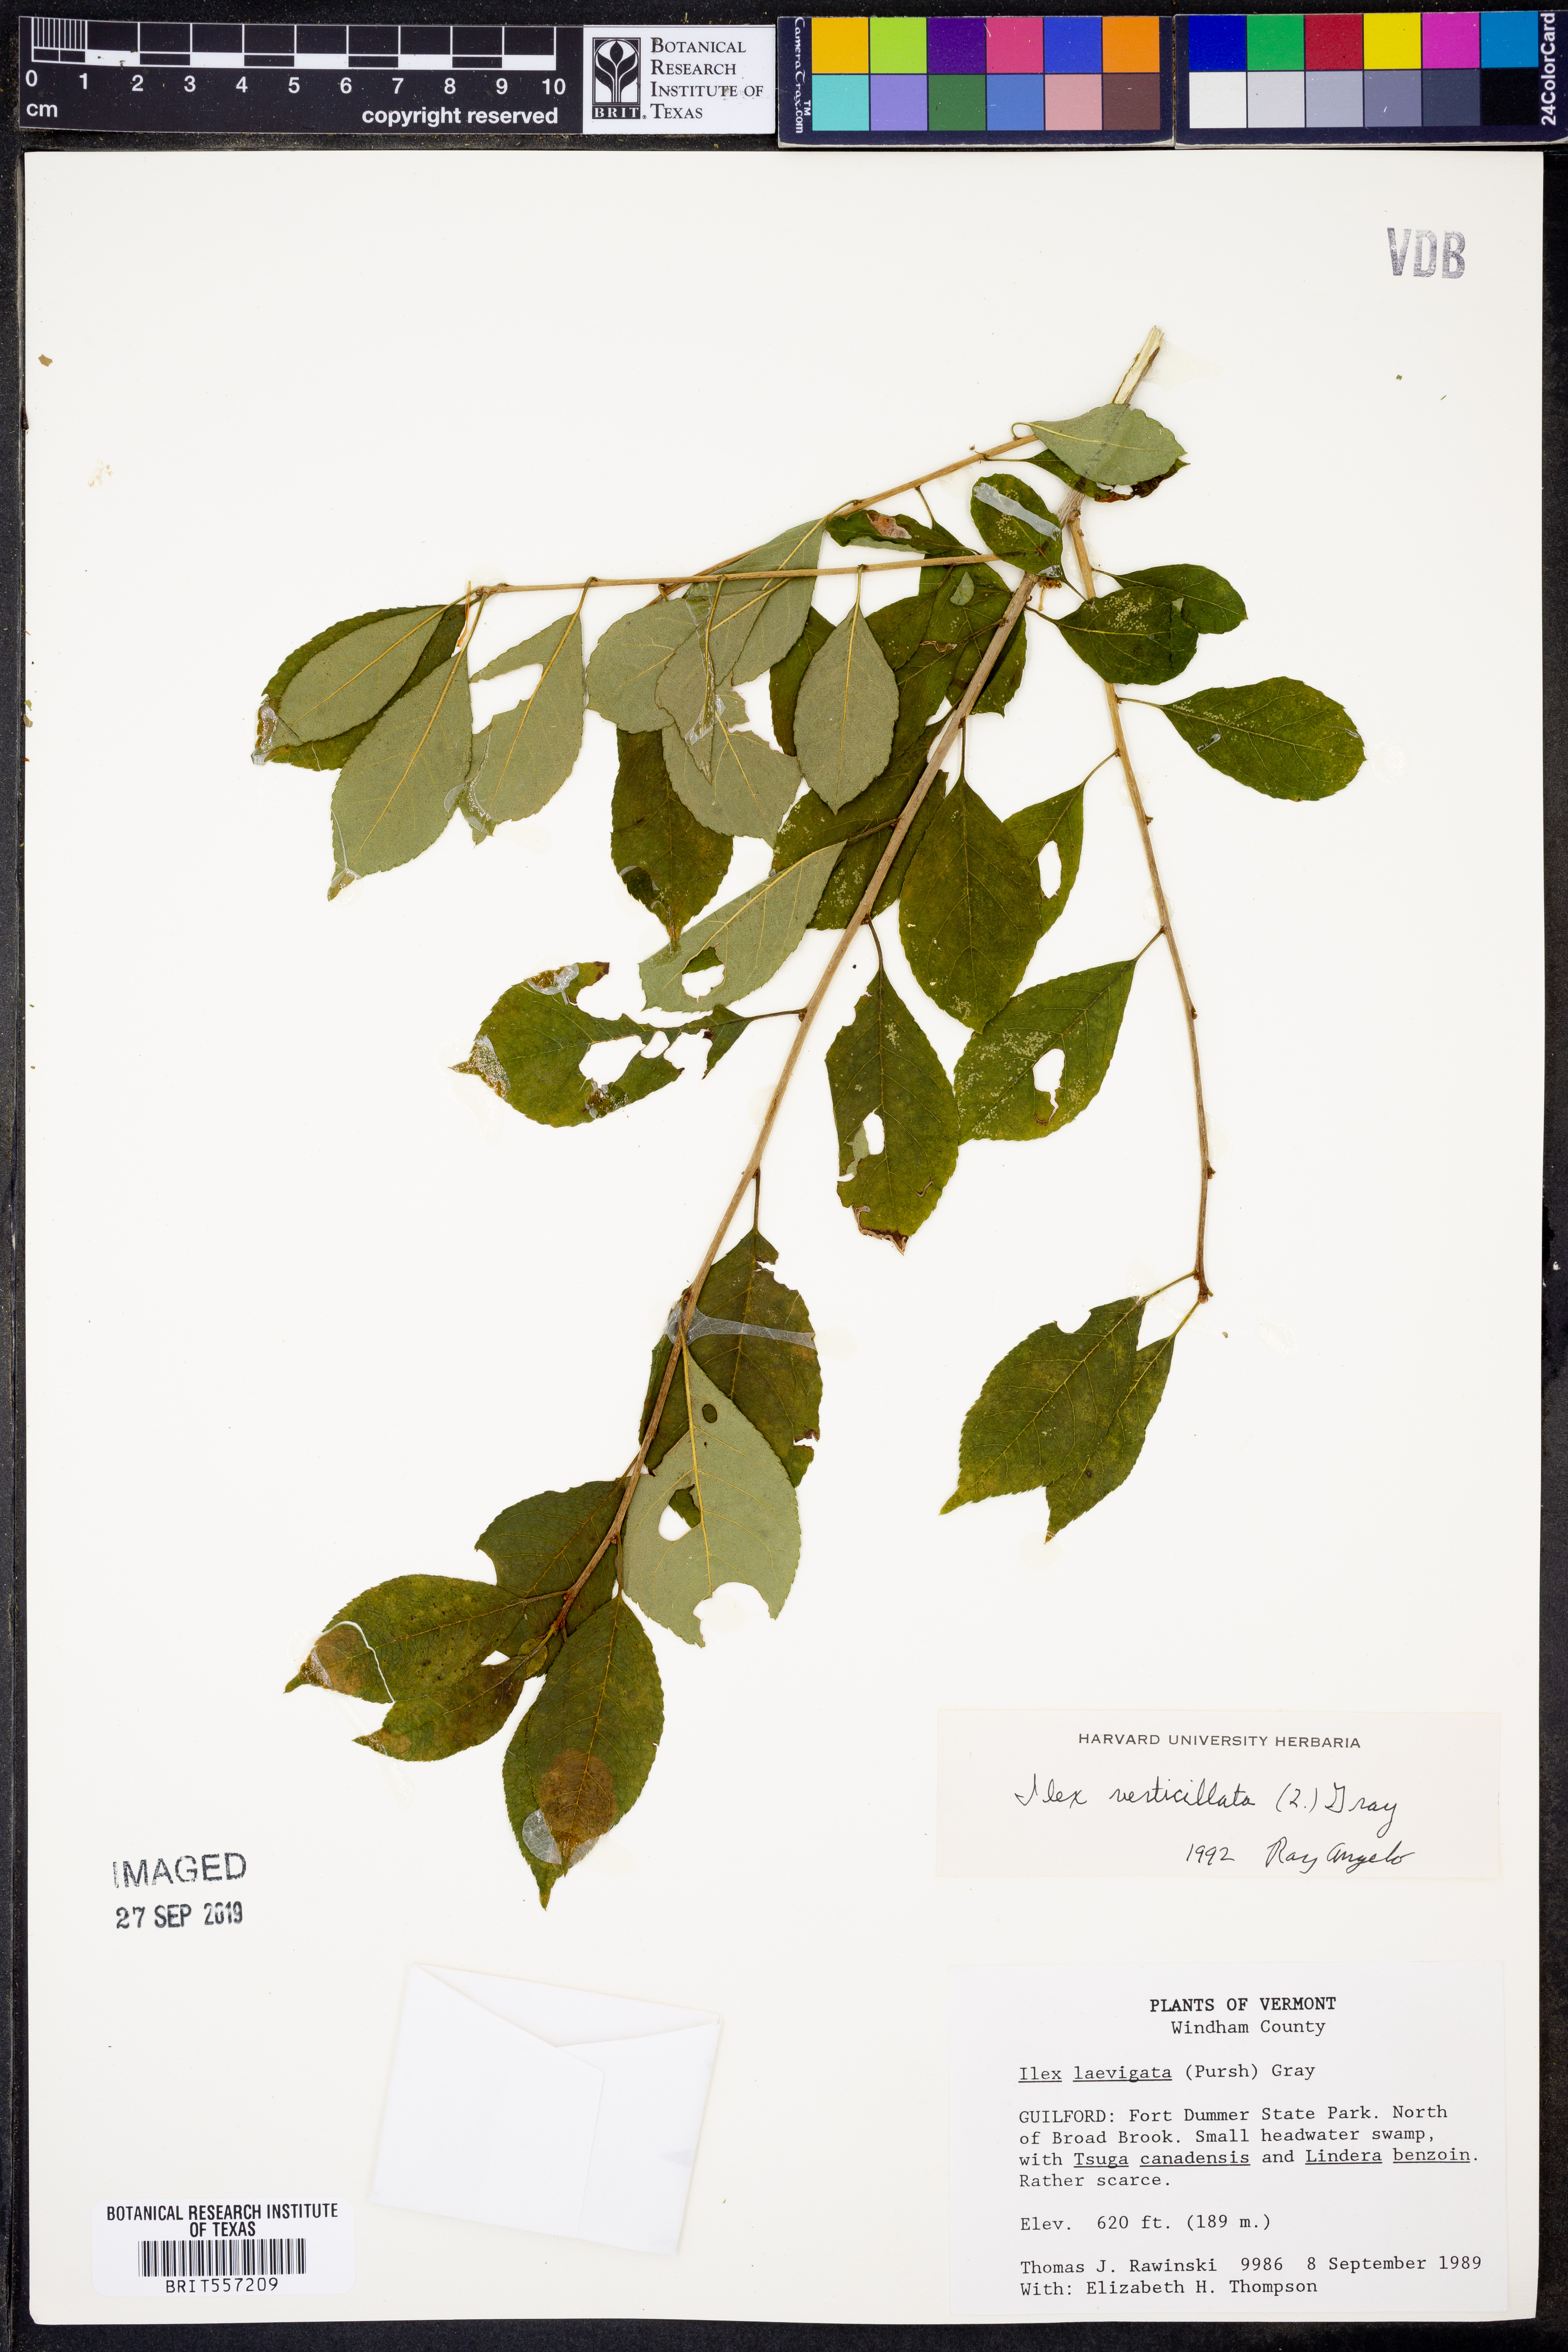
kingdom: Plantae
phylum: Tracheophyta
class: Magnoliopsida
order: Aquifoliales
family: Aquifoliaceae
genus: Ilex
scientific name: Ilex verticillata
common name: Virginia winterberry
